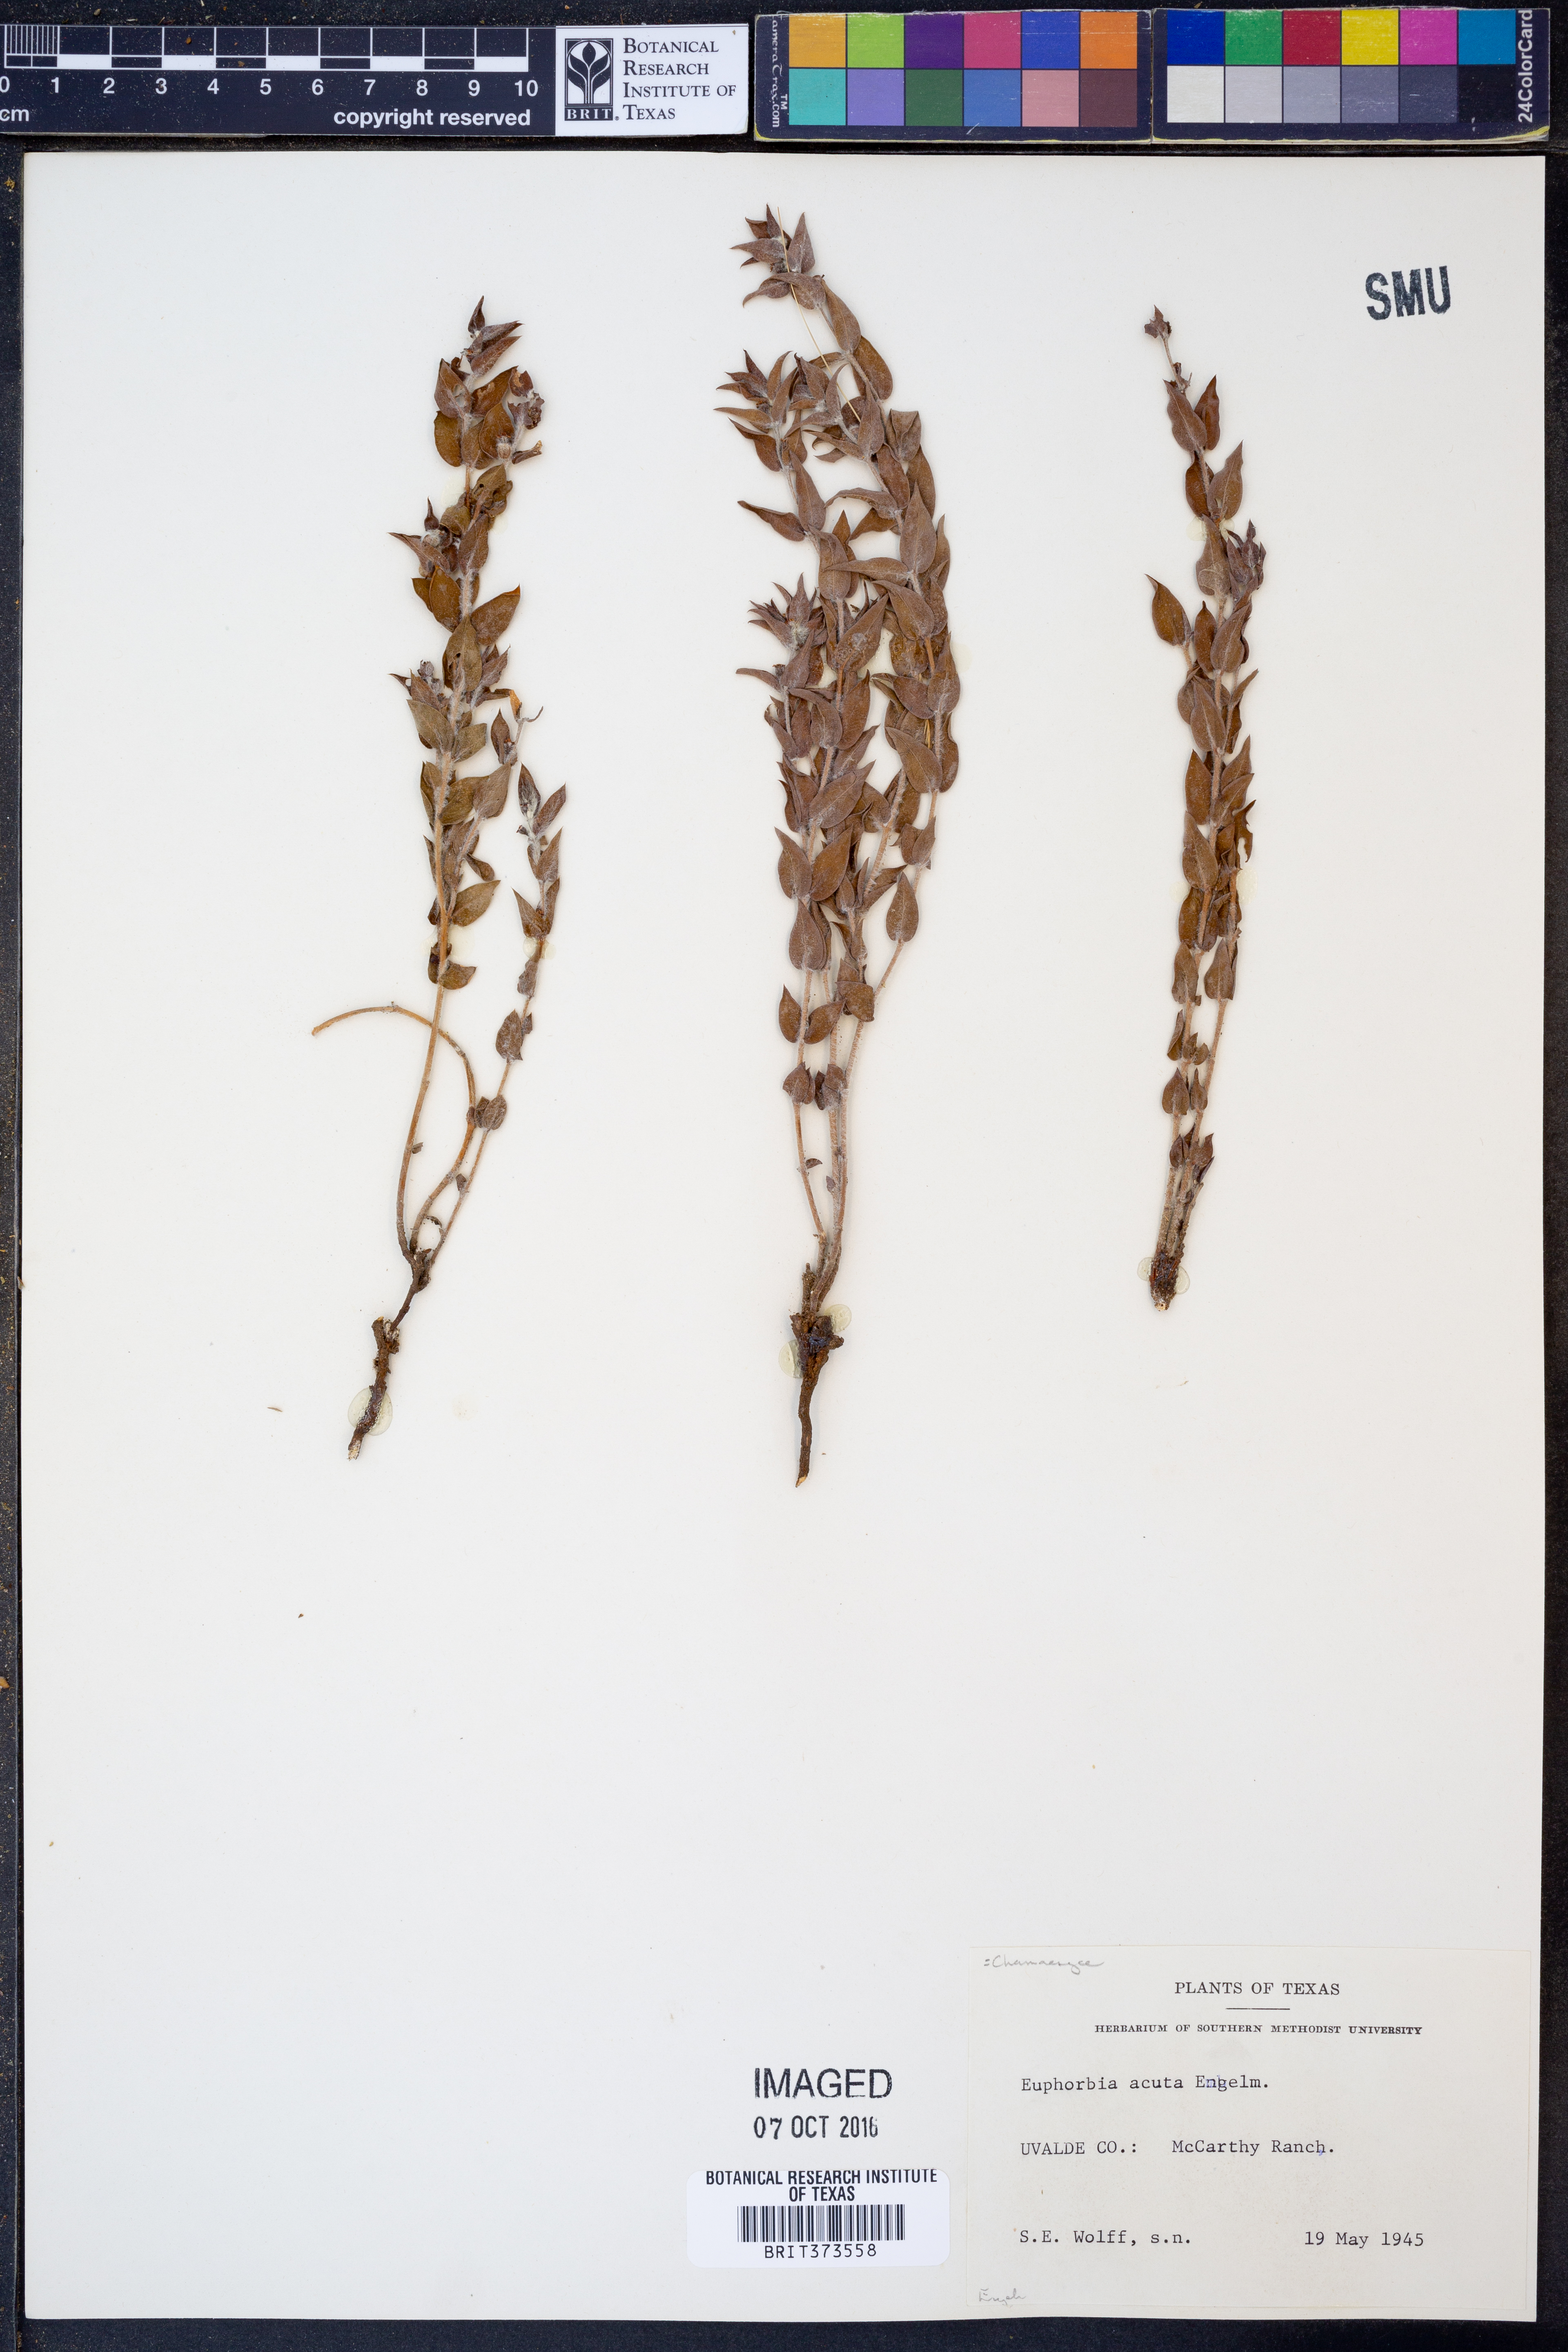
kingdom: Plantae
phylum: Tracheophyta
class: Magnoliopsida
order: Malpighiales
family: Euphorbiaceae
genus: Euphorbia
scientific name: Euphorbia acuta
